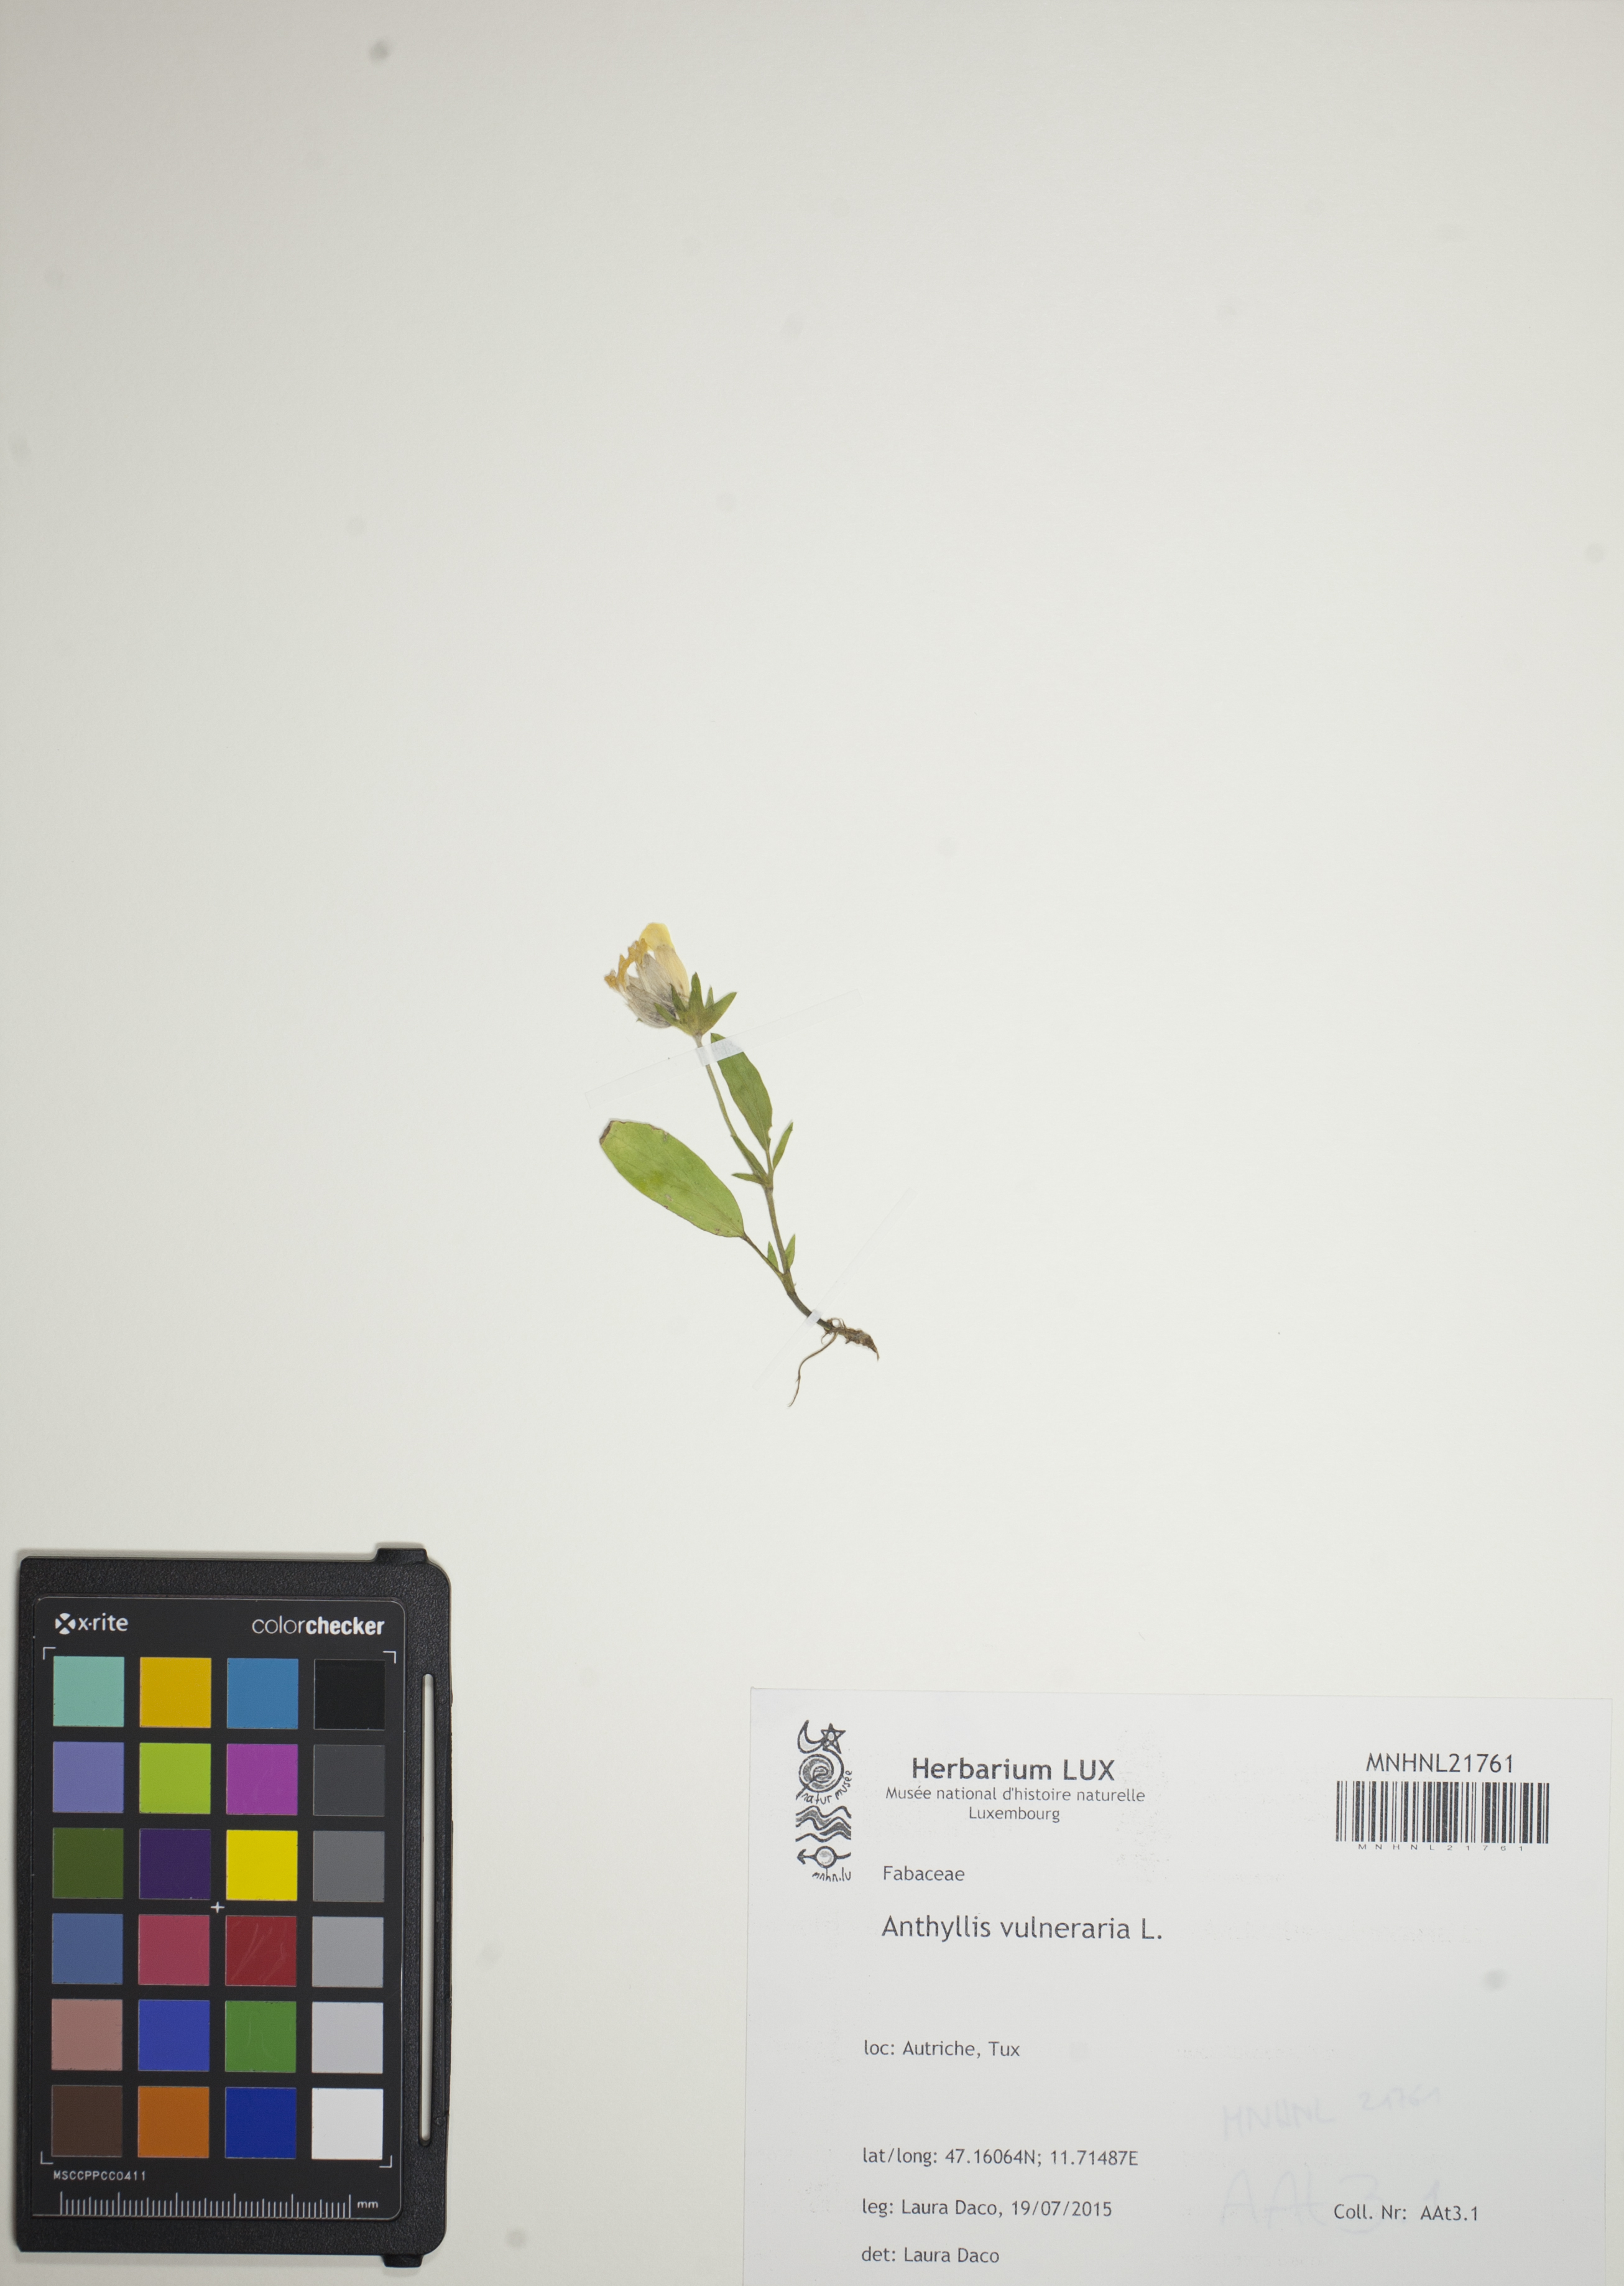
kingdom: Plantae
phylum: Tracheophyta
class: Magnoliopsida
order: Fabales
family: Fabaceae
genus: Anthyllis
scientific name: Anthyllis vulneraria
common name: Kidney vetch
